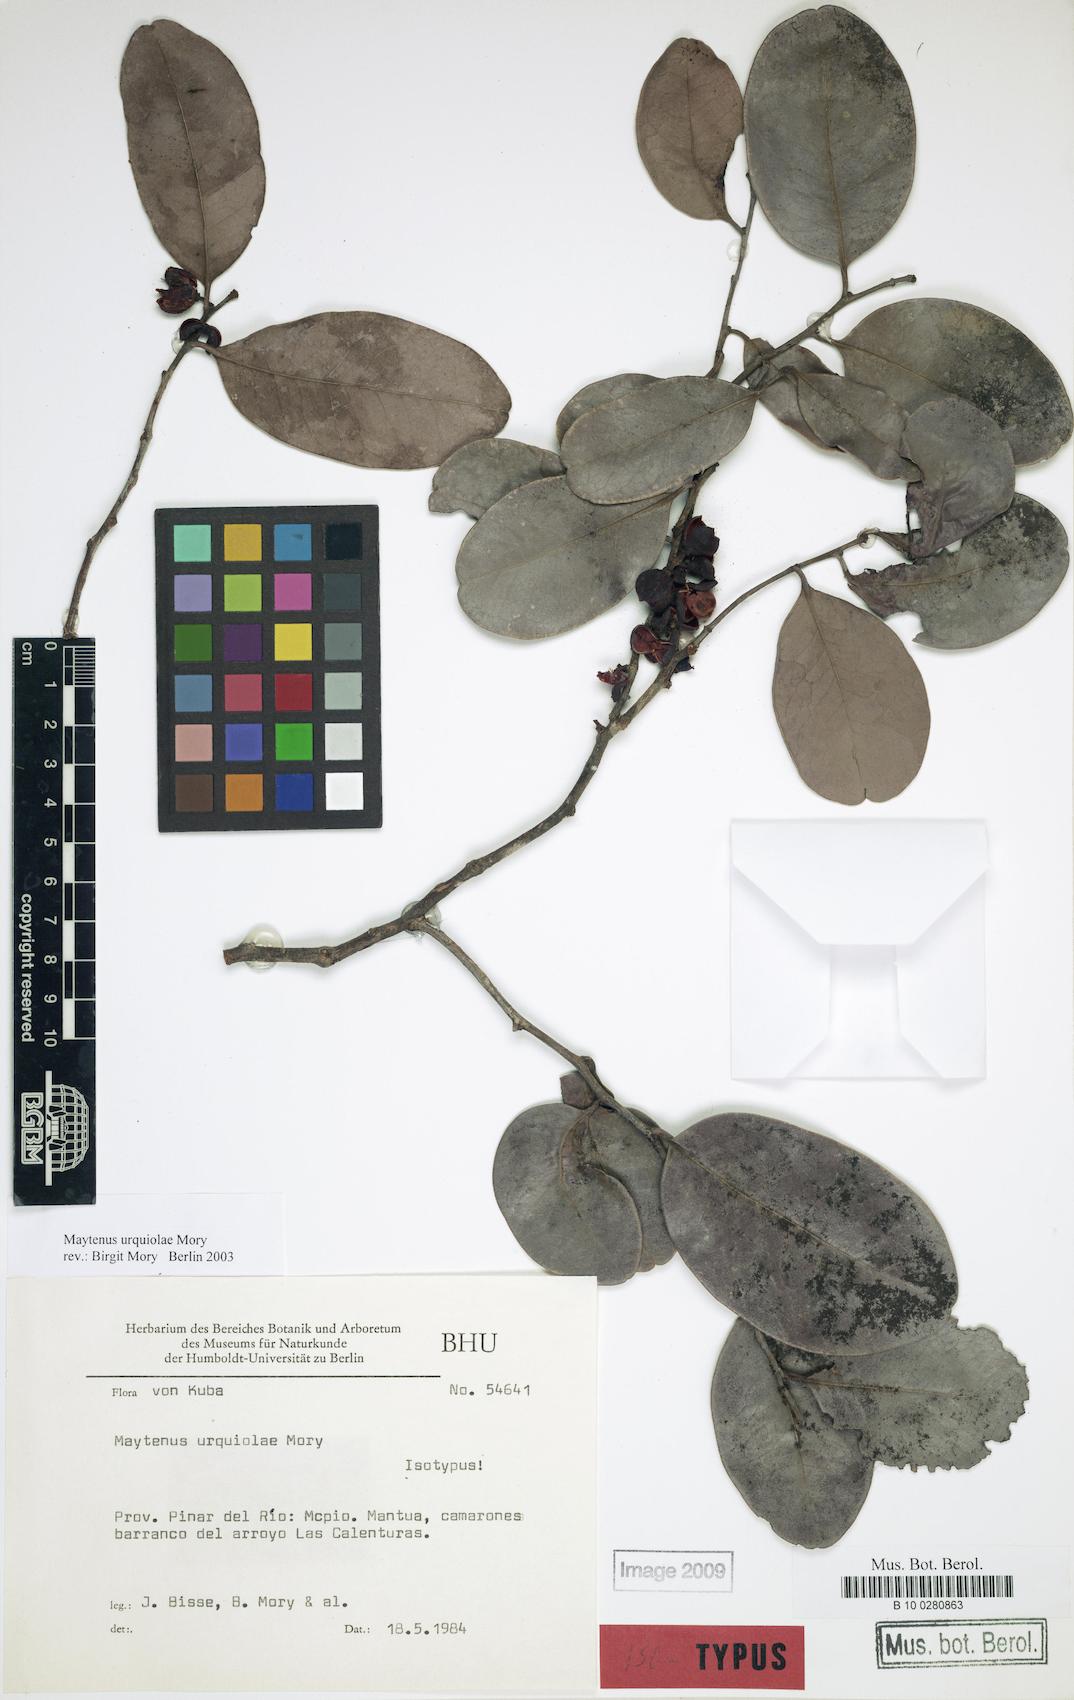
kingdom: Plantae
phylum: Tracheophyta
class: Magnoliopsida
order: Celastrales
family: Celastraceae
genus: Monteverdia
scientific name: Monteverdia urquiolae
